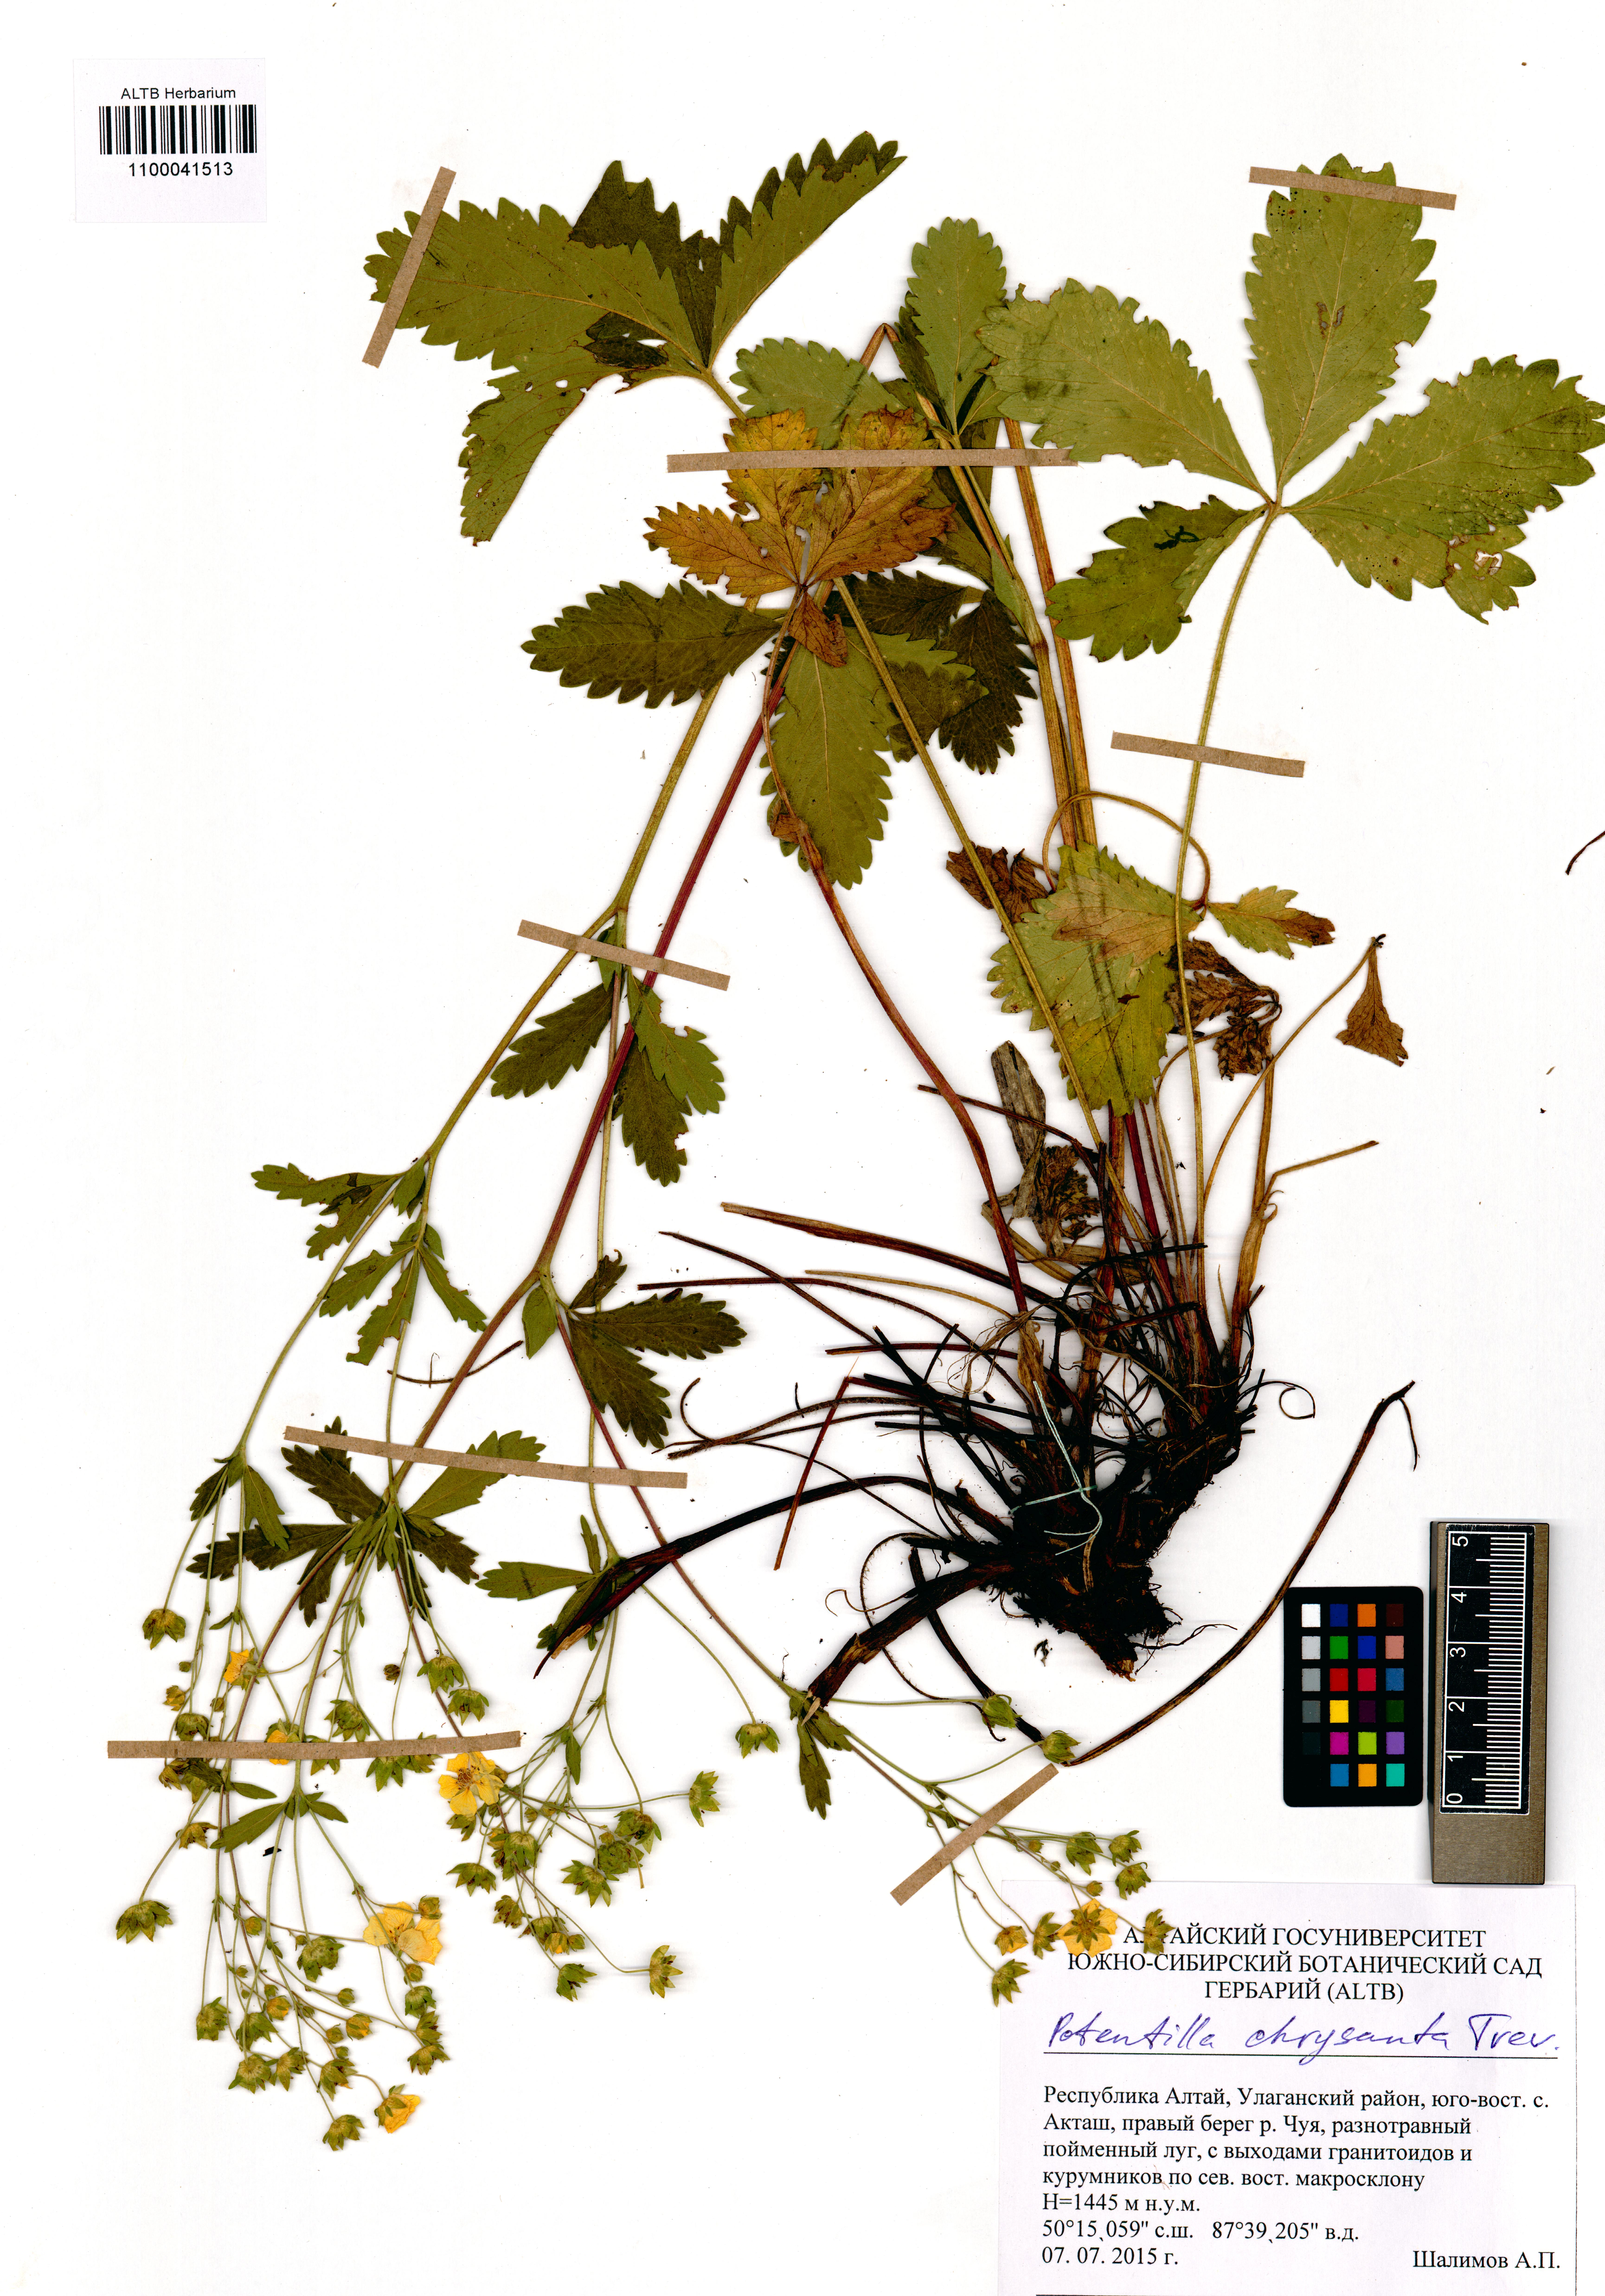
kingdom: Plantae
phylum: Tracheophyta
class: Magnoliopsida
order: Rosales
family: Rosaceae
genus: Potentilla
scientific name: Potentilla chrysantha
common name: Thuringian cinquefoil
